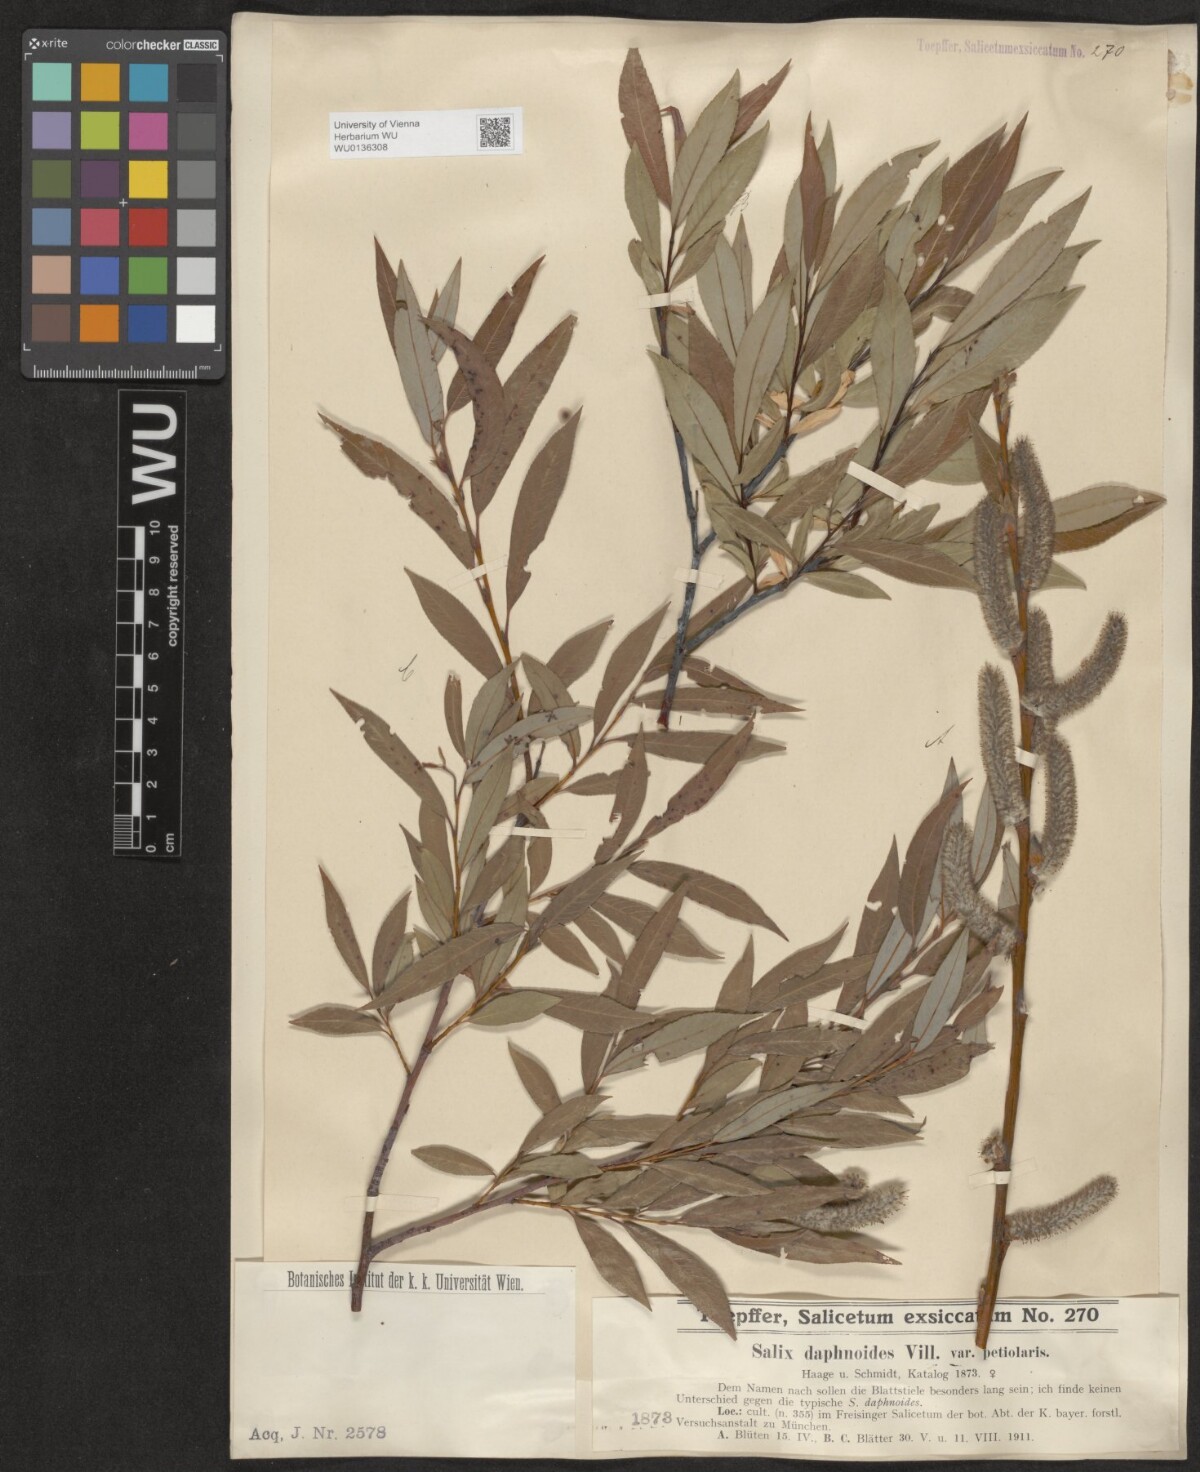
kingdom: Plantae
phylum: Tracheophyta
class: Magnoliopsida
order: Malpighiales
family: Salicaceae
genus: Salix
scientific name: Salix daphnoides
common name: European violet-willow
